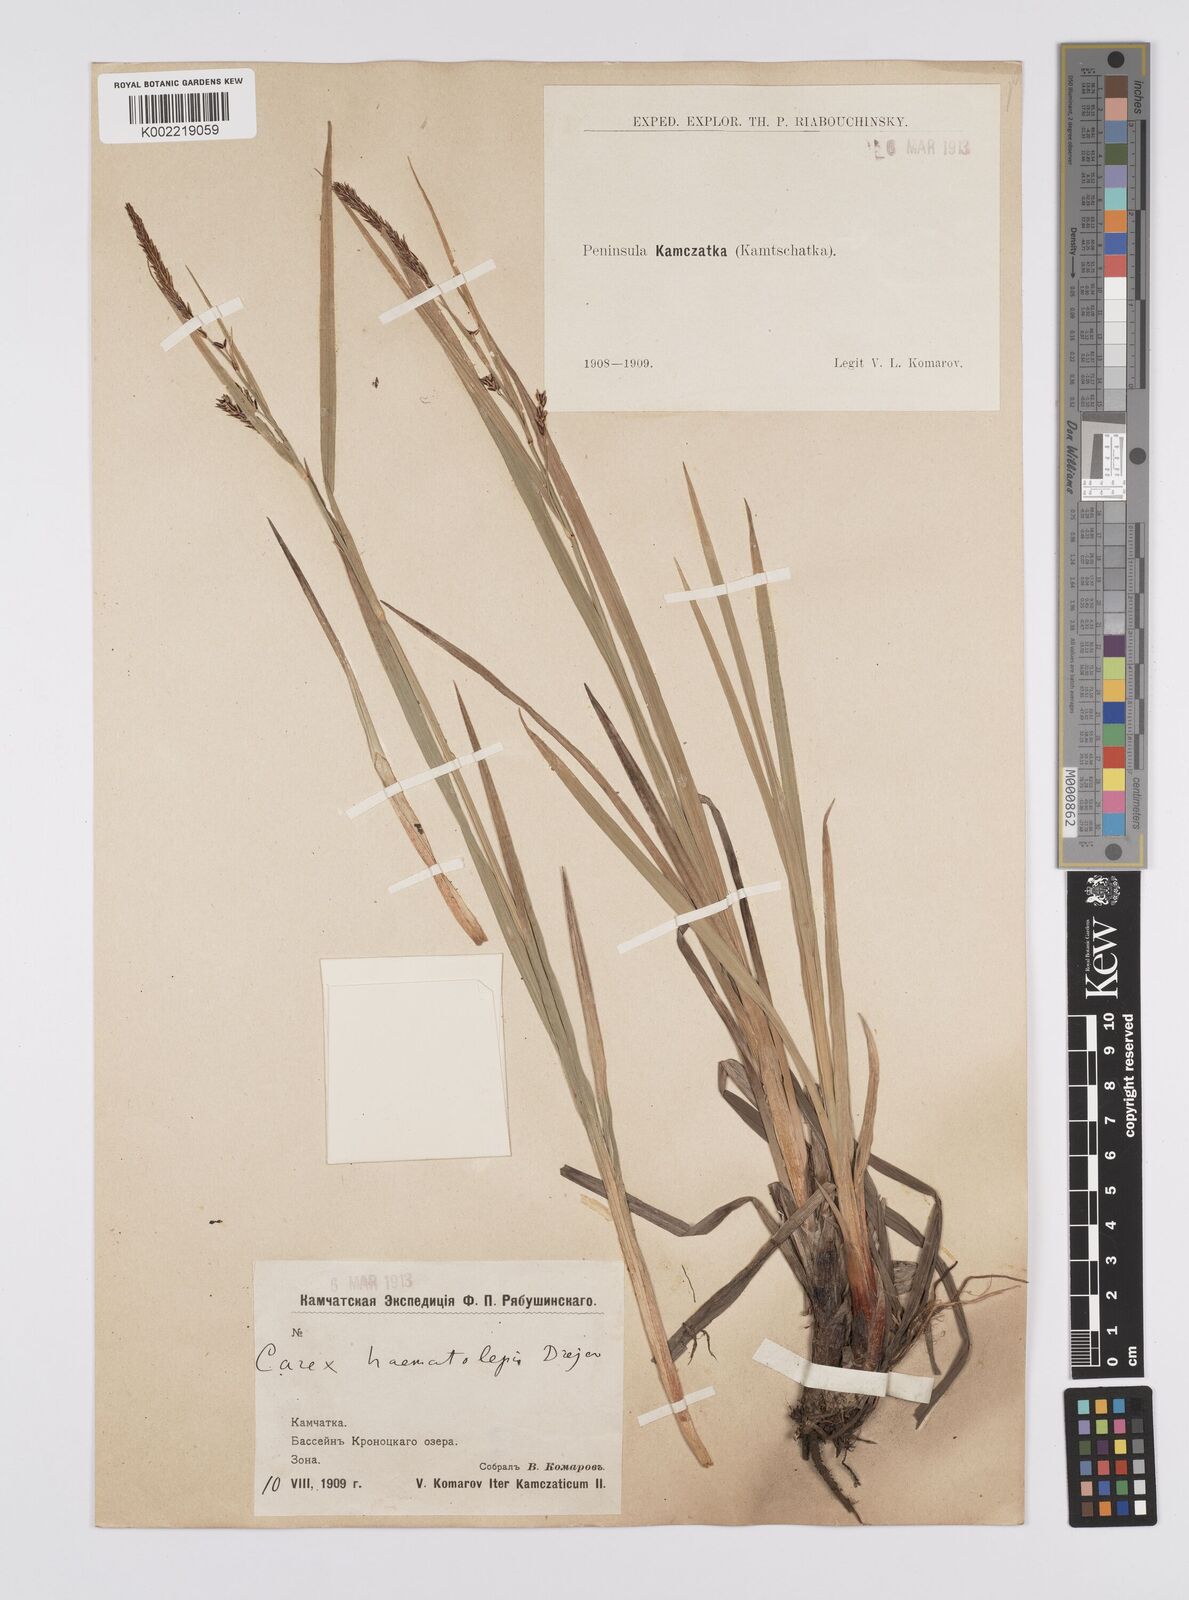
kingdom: Plantae
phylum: Tracheophyta
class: Liliopsida
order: Poales
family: Cyperaceae
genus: Carex
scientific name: Carex haematolepis
